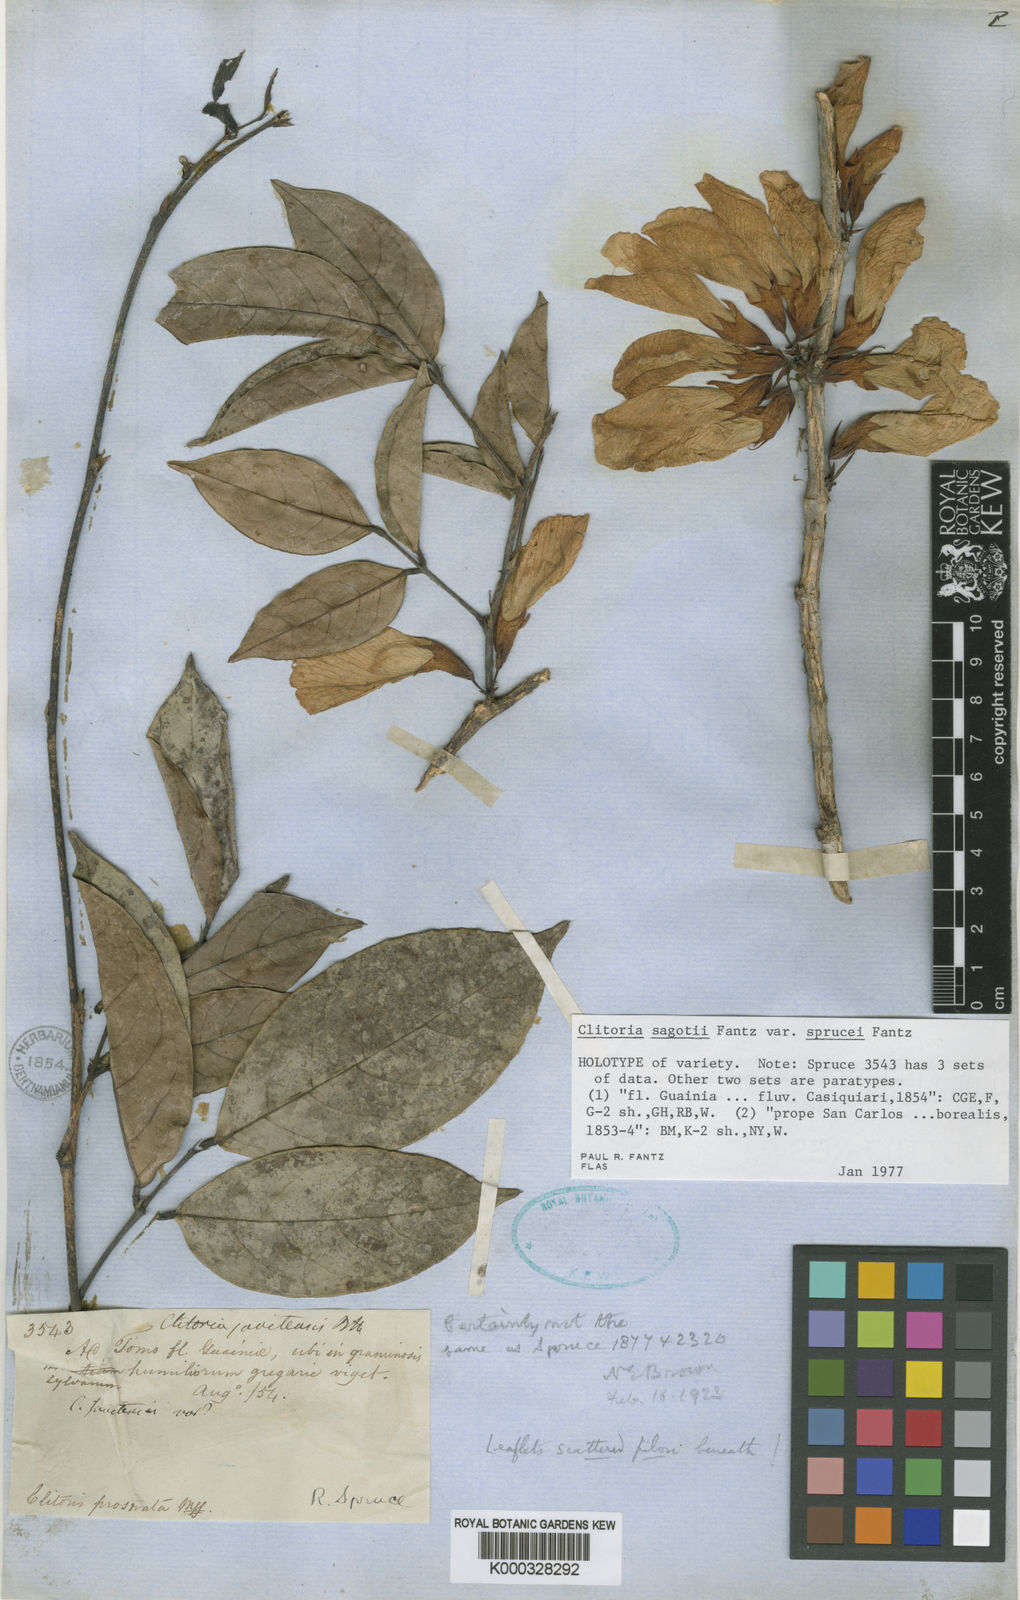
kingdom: Plantae
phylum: Tracheophyta
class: Magnoliopsida
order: Fabales
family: Fabaceae
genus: Clitoria
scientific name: Clitoria sagotii
